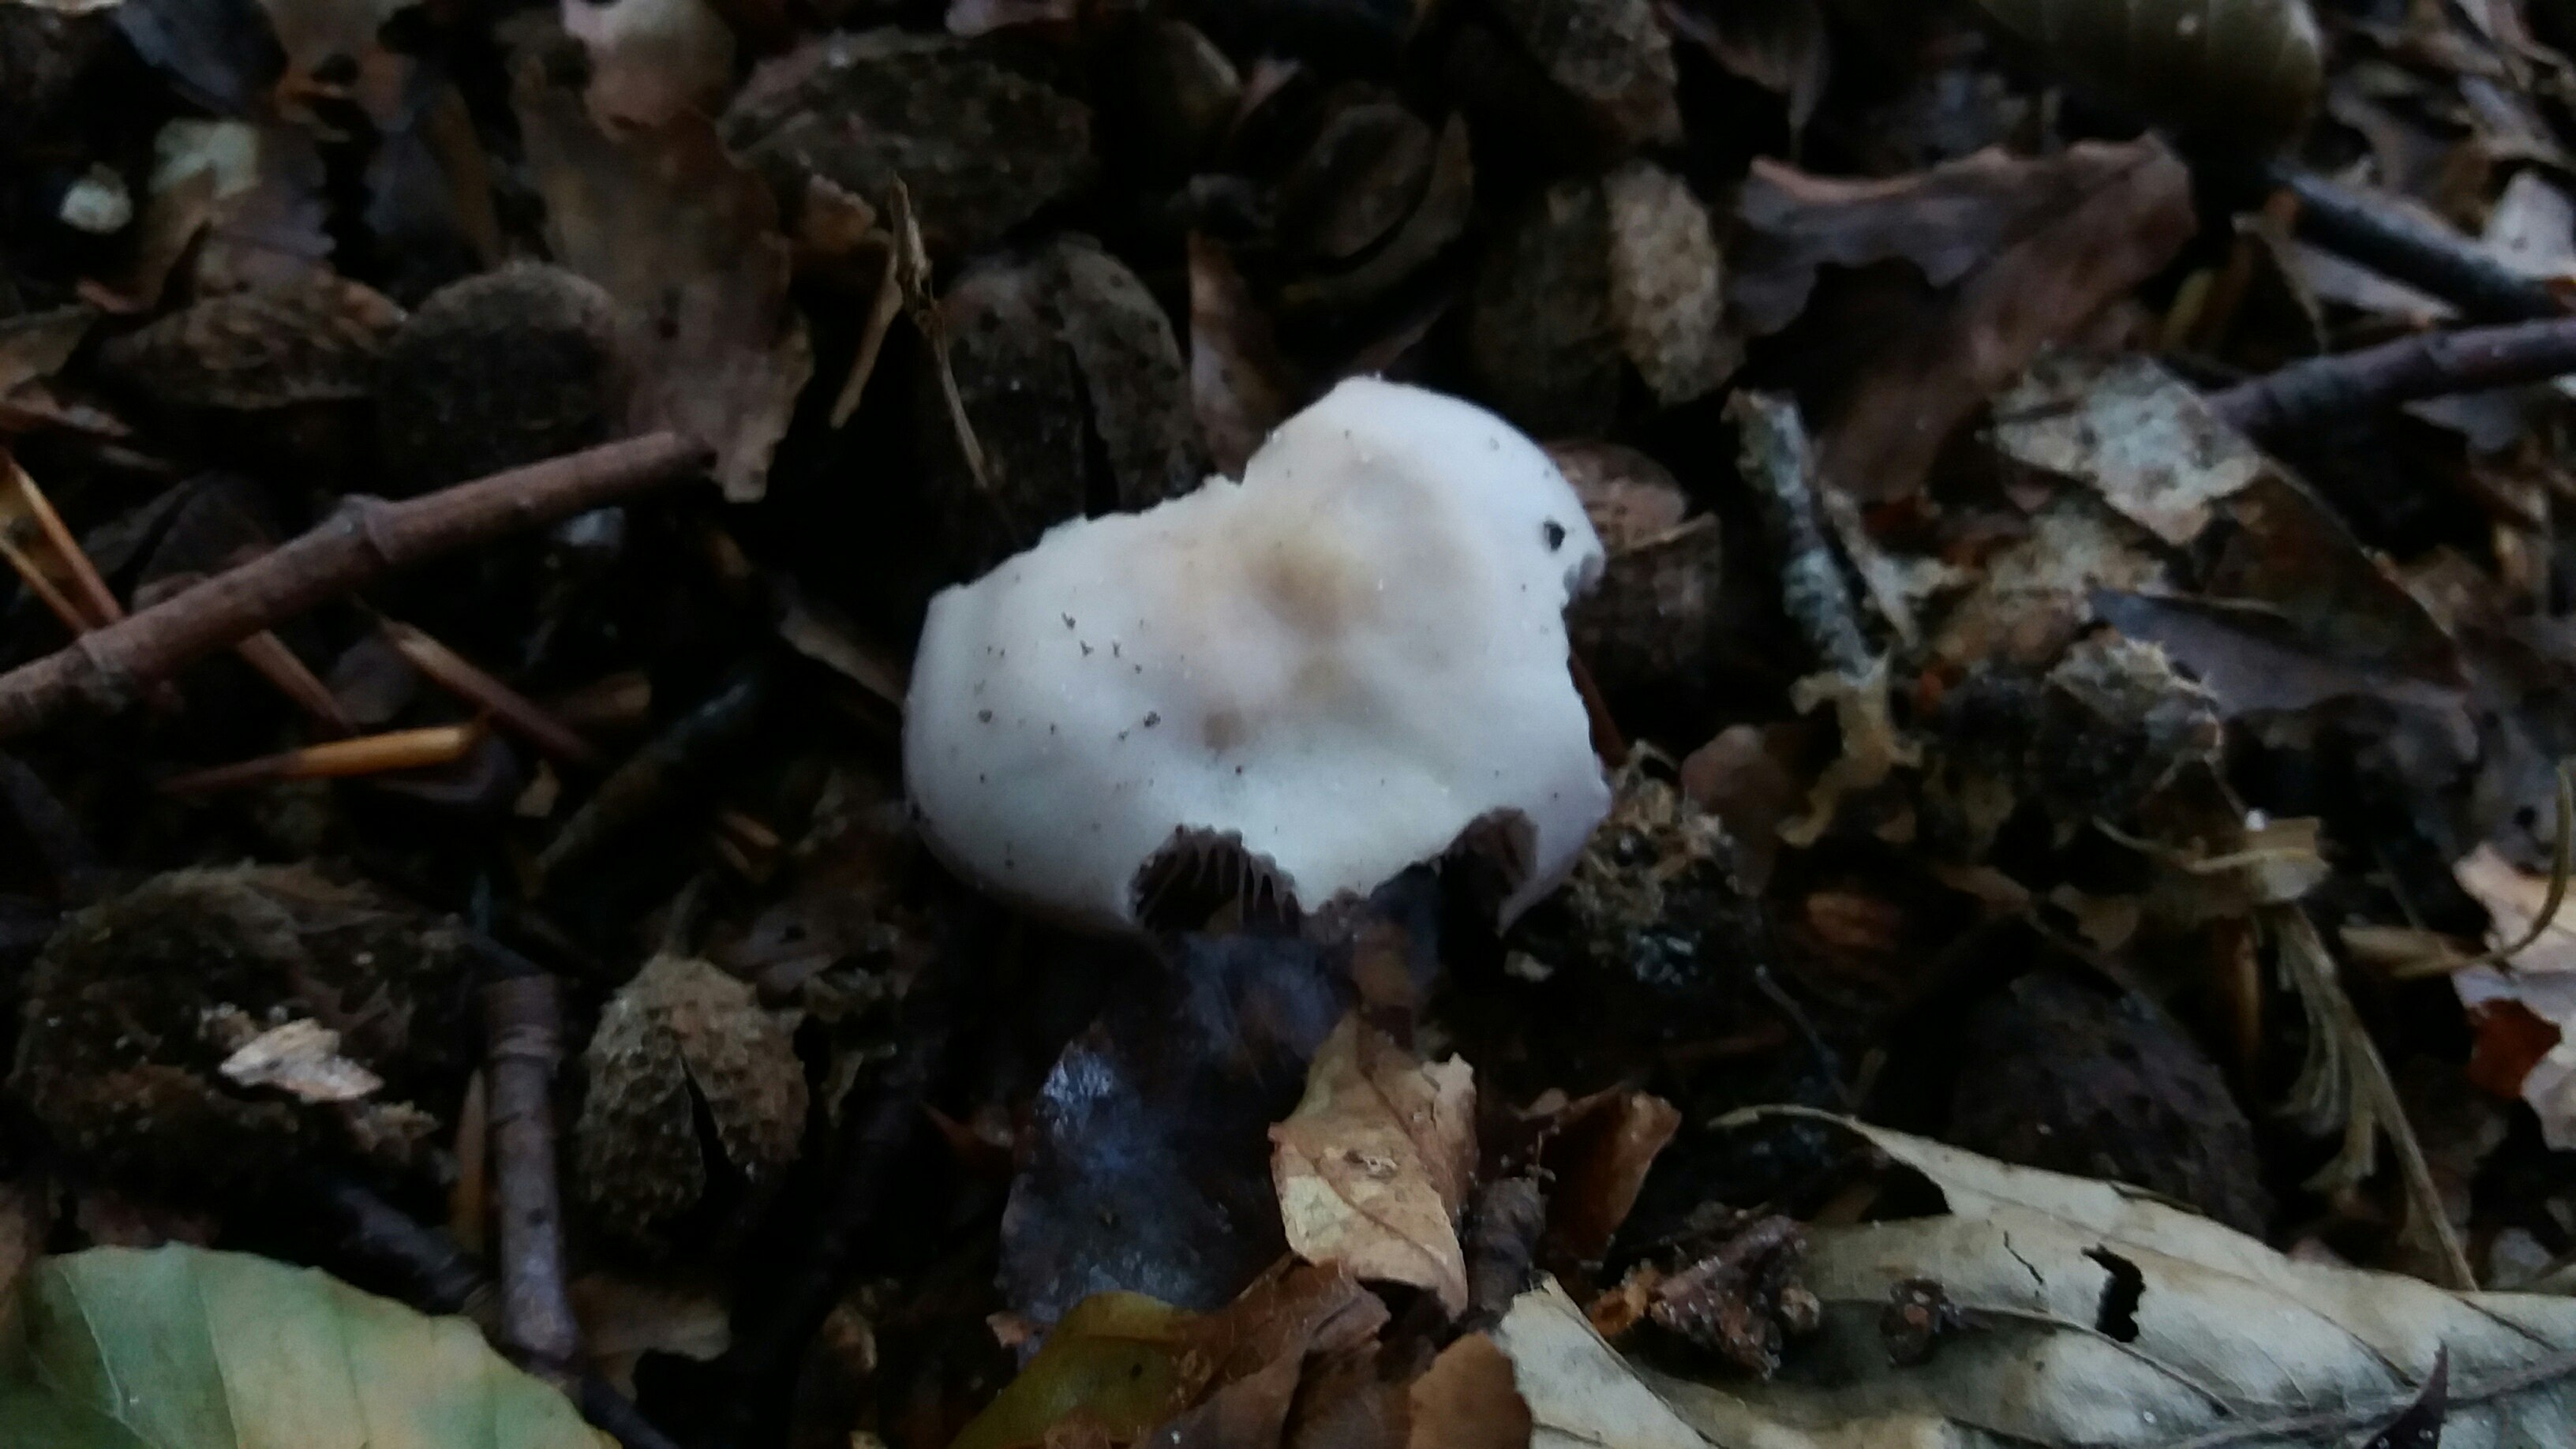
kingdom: Fungi
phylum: Basidiomycota
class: Agaricomycetes
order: Agaricales
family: Mycenaceae
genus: Mycena
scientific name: Mycena pelianthina
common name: mørkbladet huesvamp
